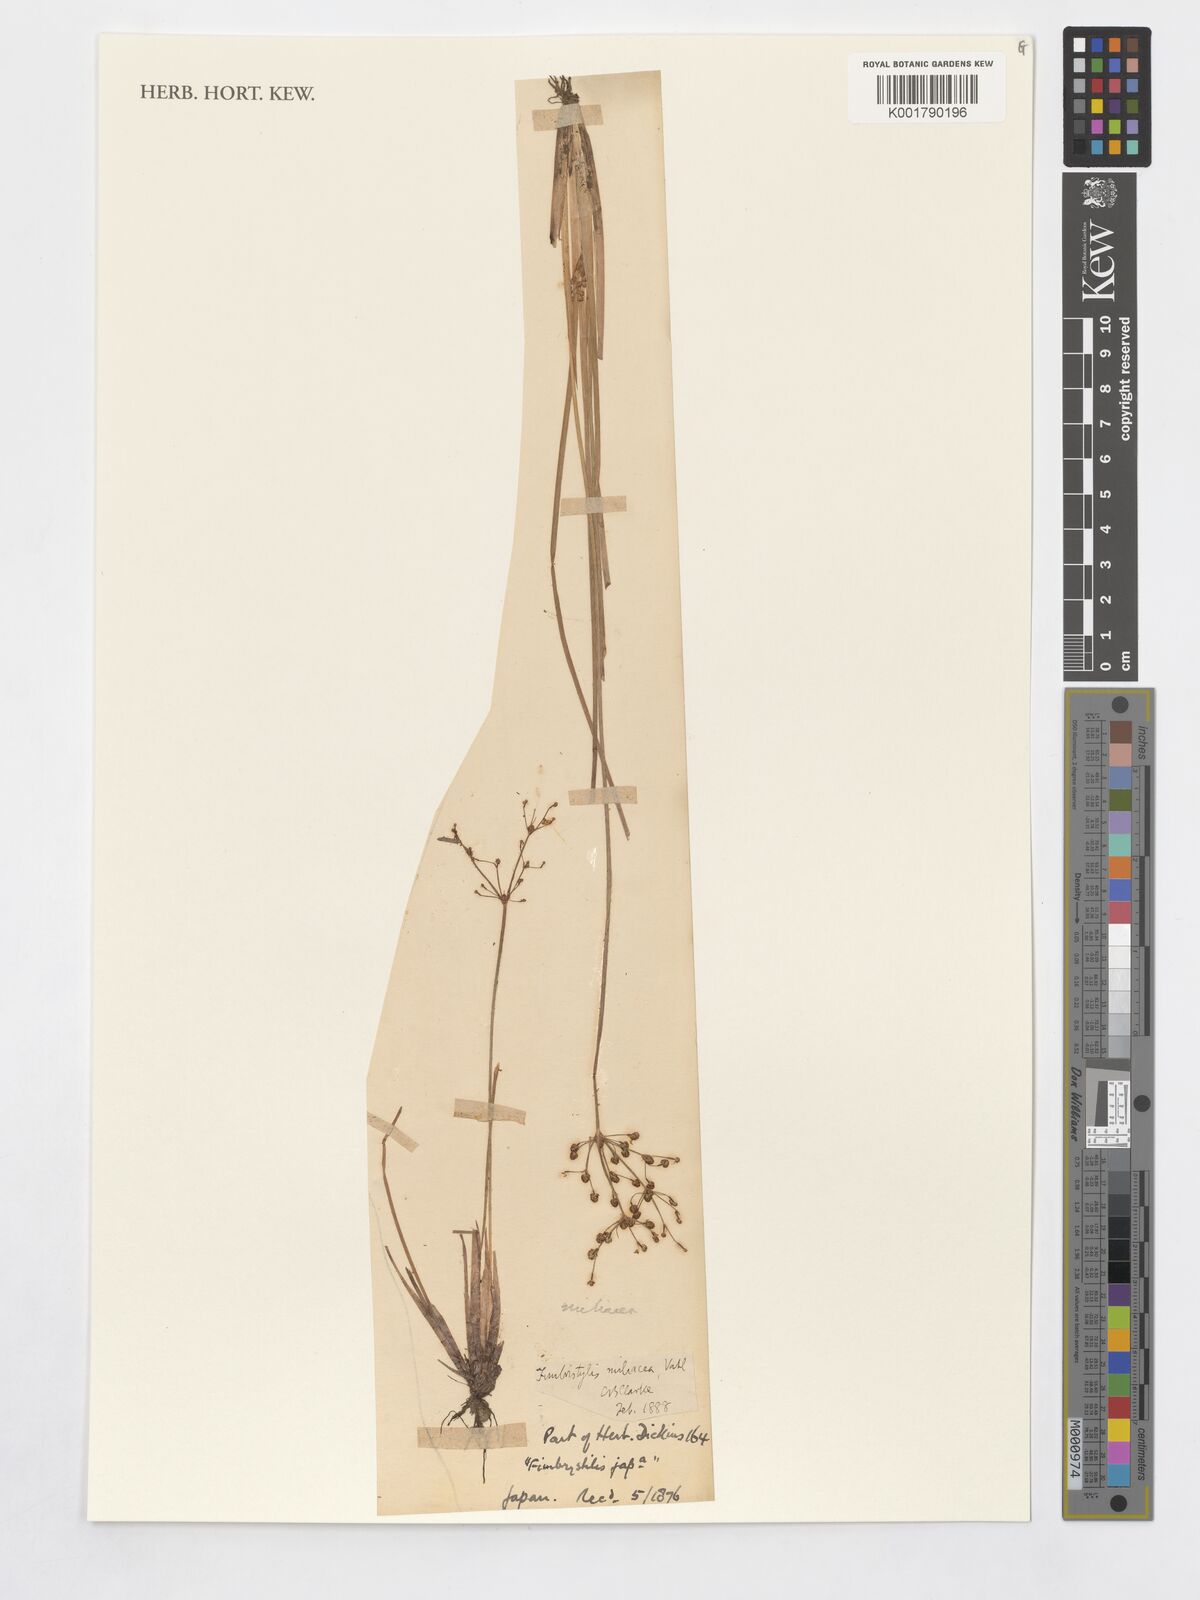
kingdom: Plantae
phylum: Tracheophyta
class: Liliopsida
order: Poales
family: Cyperaceae
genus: Fimbristylis
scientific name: Fimbristylis quinquangularis
